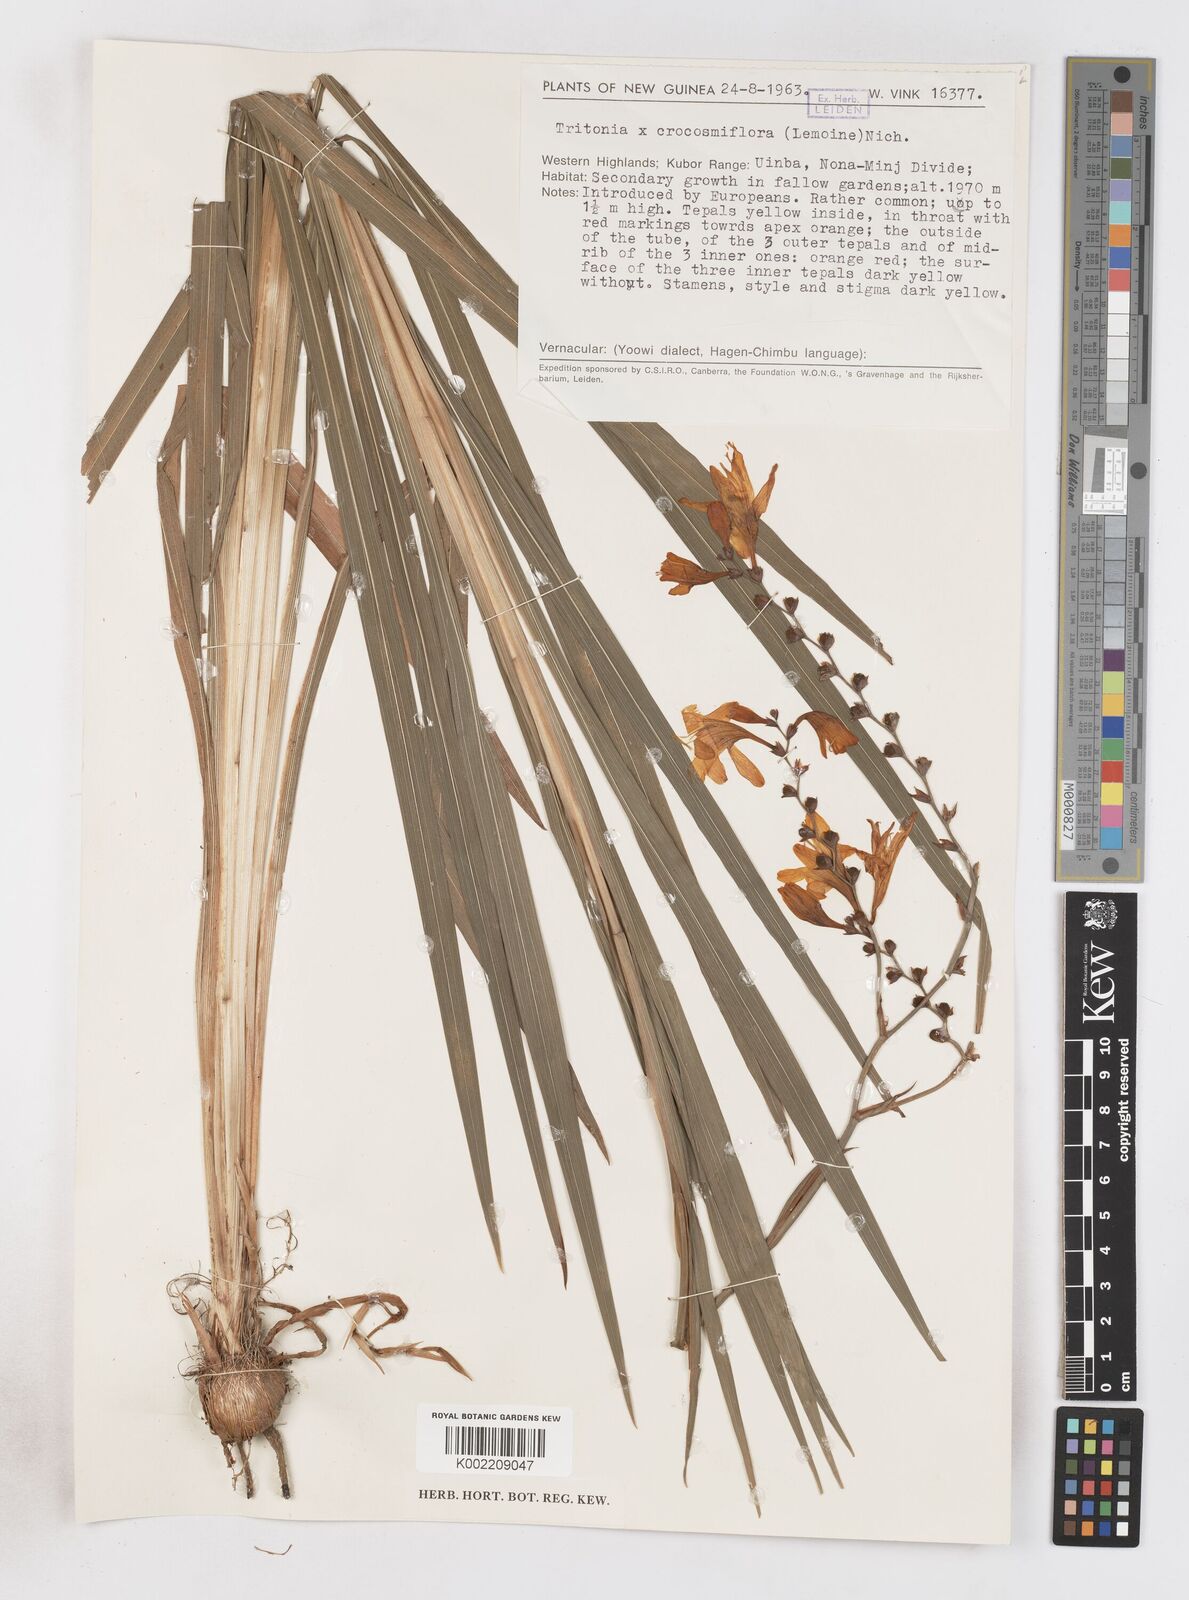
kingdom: Plantae
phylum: Tracheophyta
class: Liliopsida
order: Asparagales
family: Iridaceae
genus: Crocosmia
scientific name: Crocosmia crocosmiiflora
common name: Montbretia
